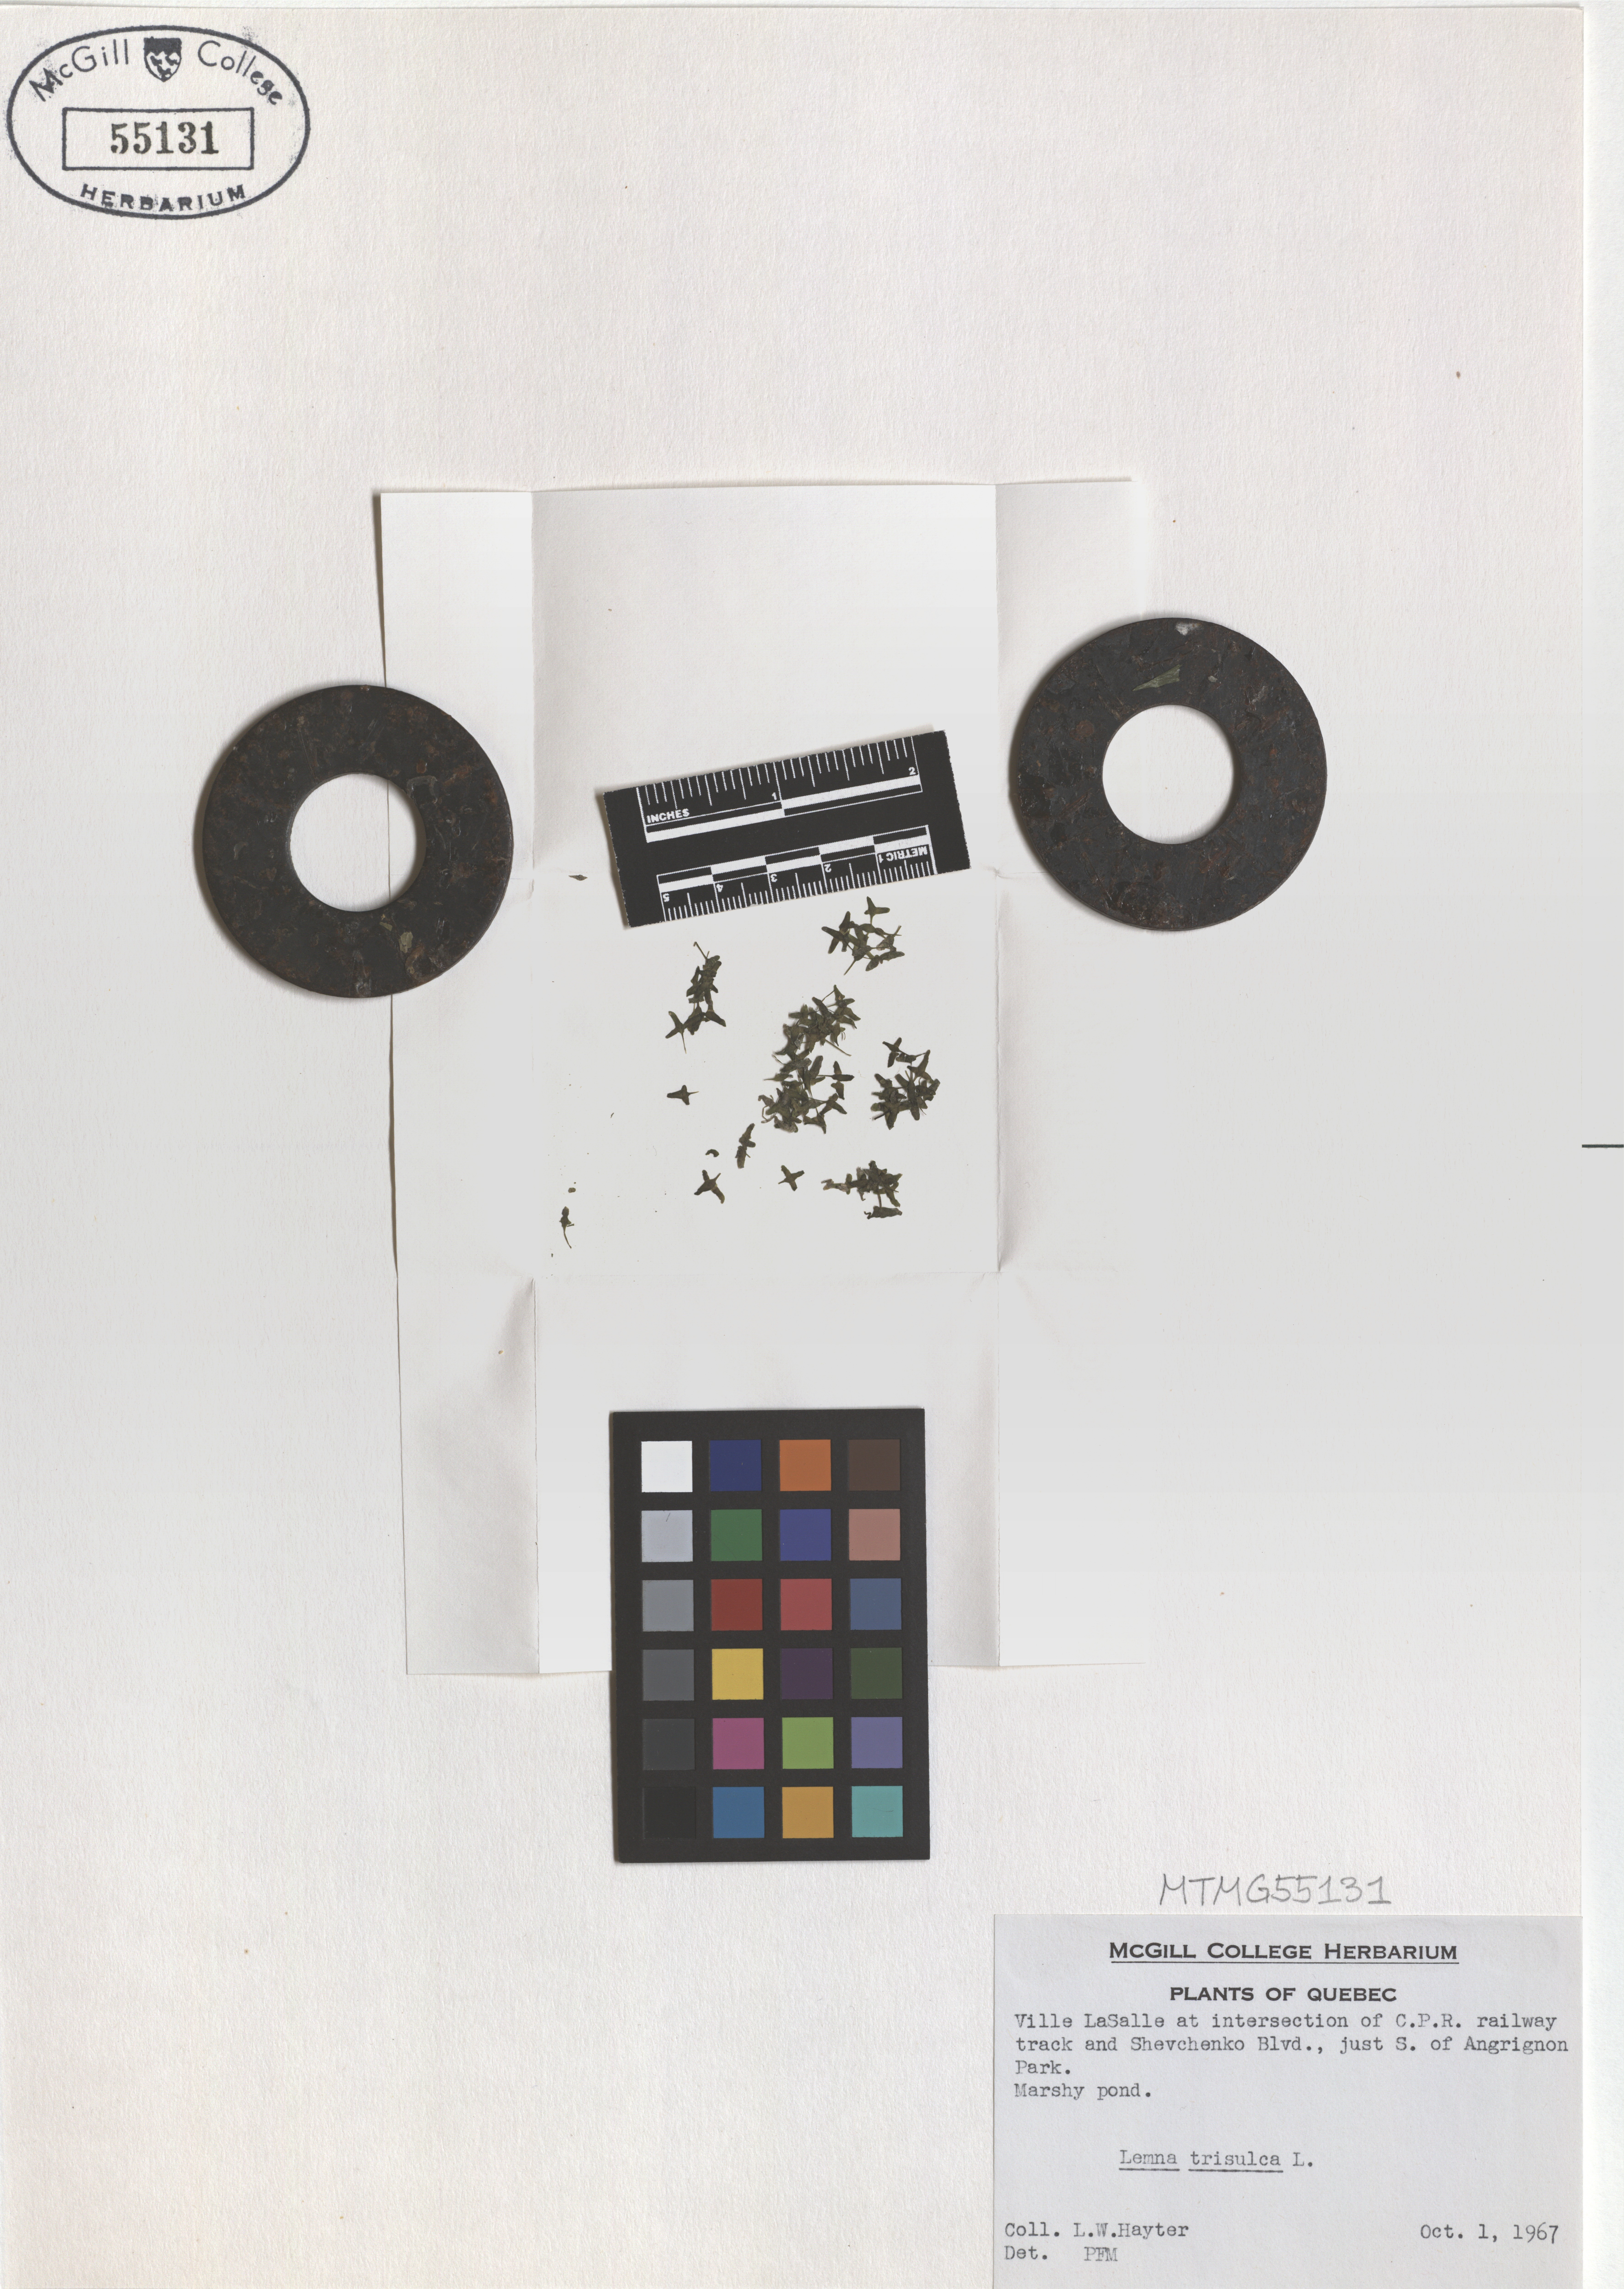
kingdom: Plantae
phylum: Tracheophyta
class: Liliopsida
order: Alismatales
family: Araceae
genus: Lemna
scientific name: Lemna trisulca
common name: Ivy-leaved duckweed
